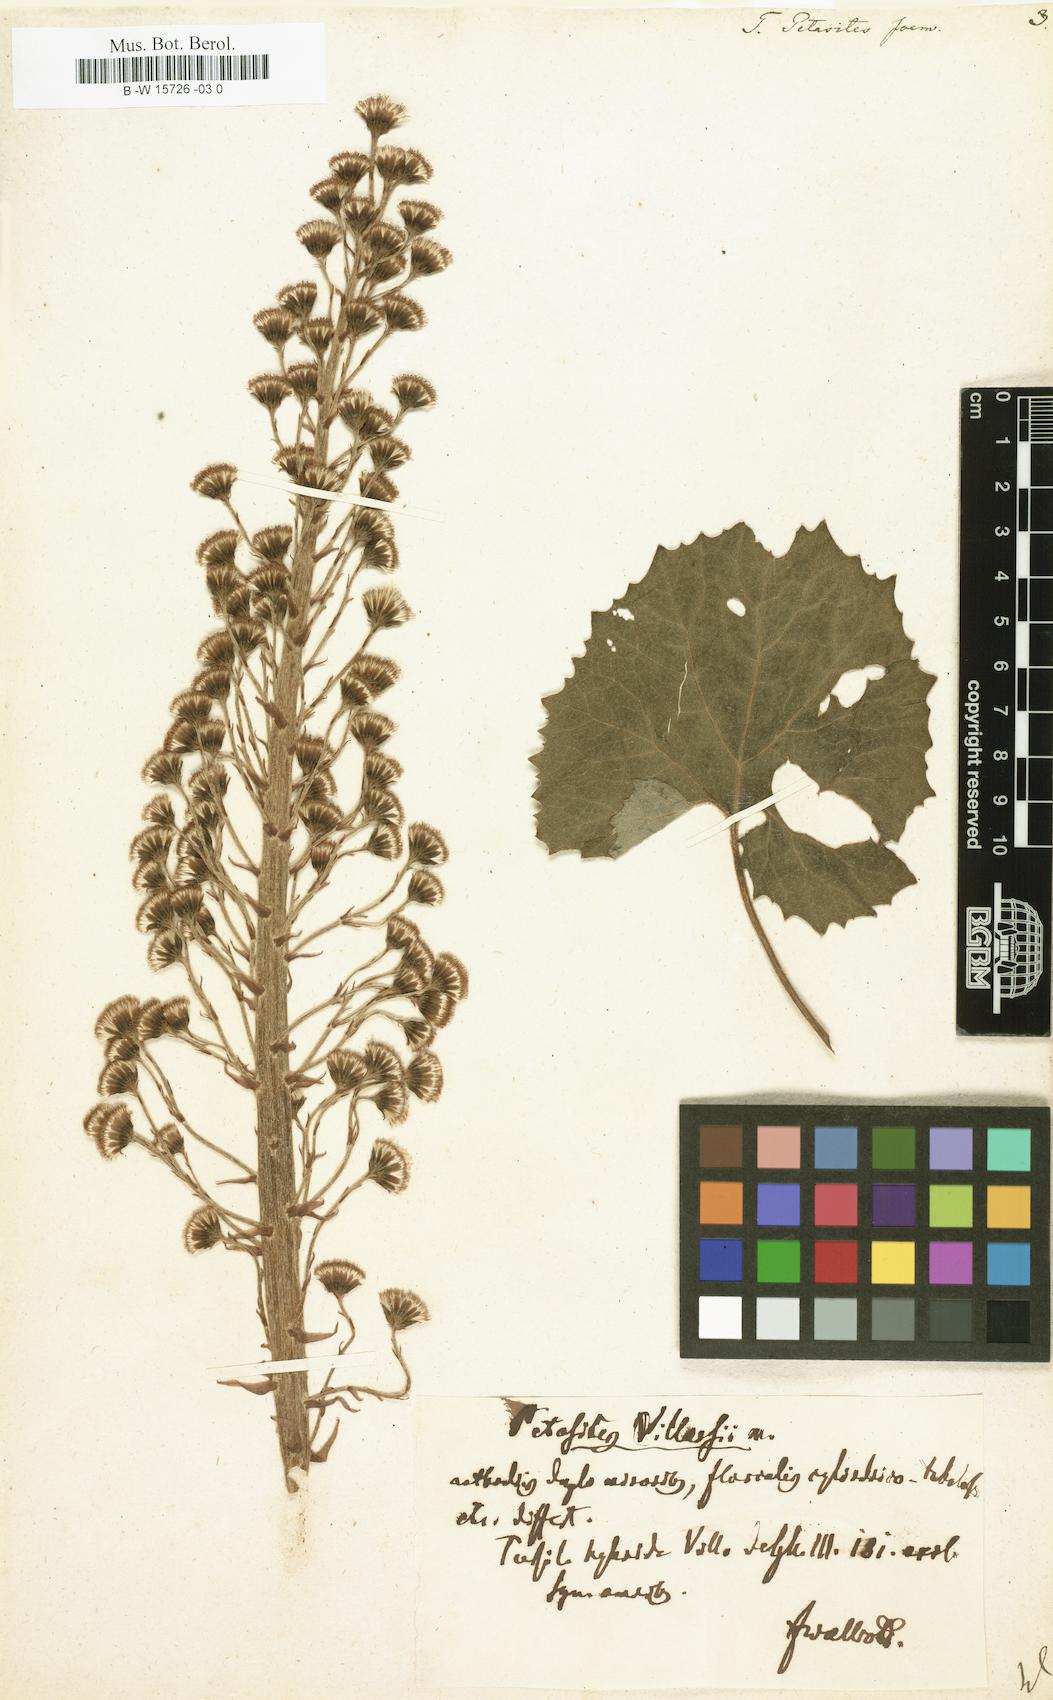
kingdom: Plantae
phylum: Tracheophyta
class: Magnoliopsida
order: Asterales
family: Asteraceae
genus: Petasites
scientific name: Petasites japonicus
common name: Giant butterbur
